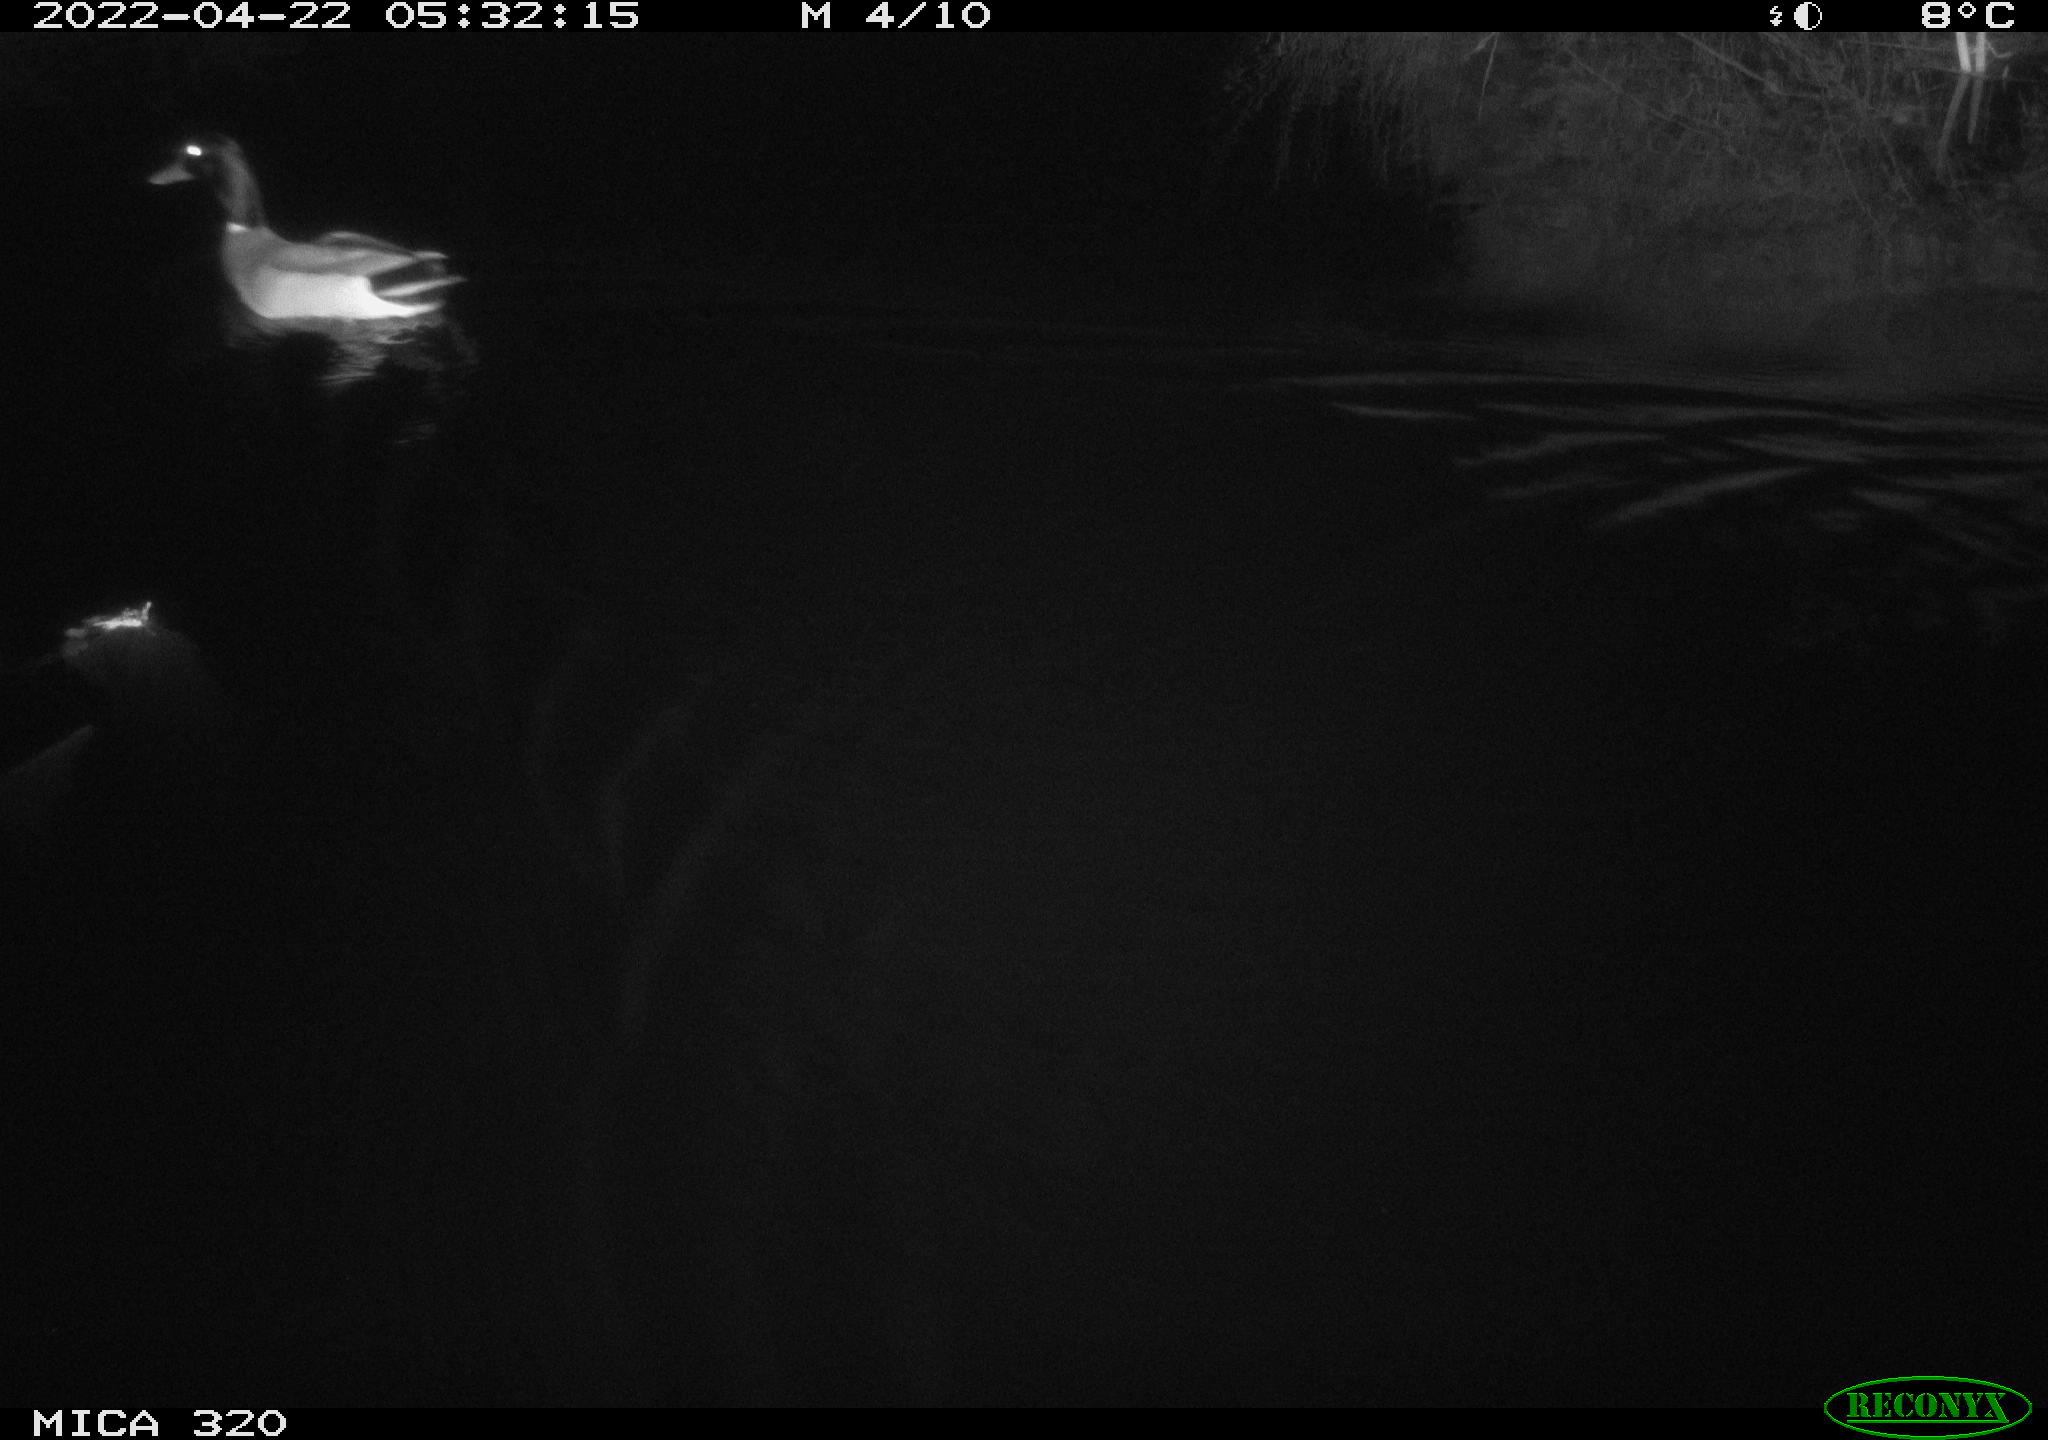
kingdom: Animalia
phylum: Chordata
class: Aves
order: Anseriformes
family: Anatidae
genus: Anas
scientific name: Anas platyrhynchos
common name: Mallard
